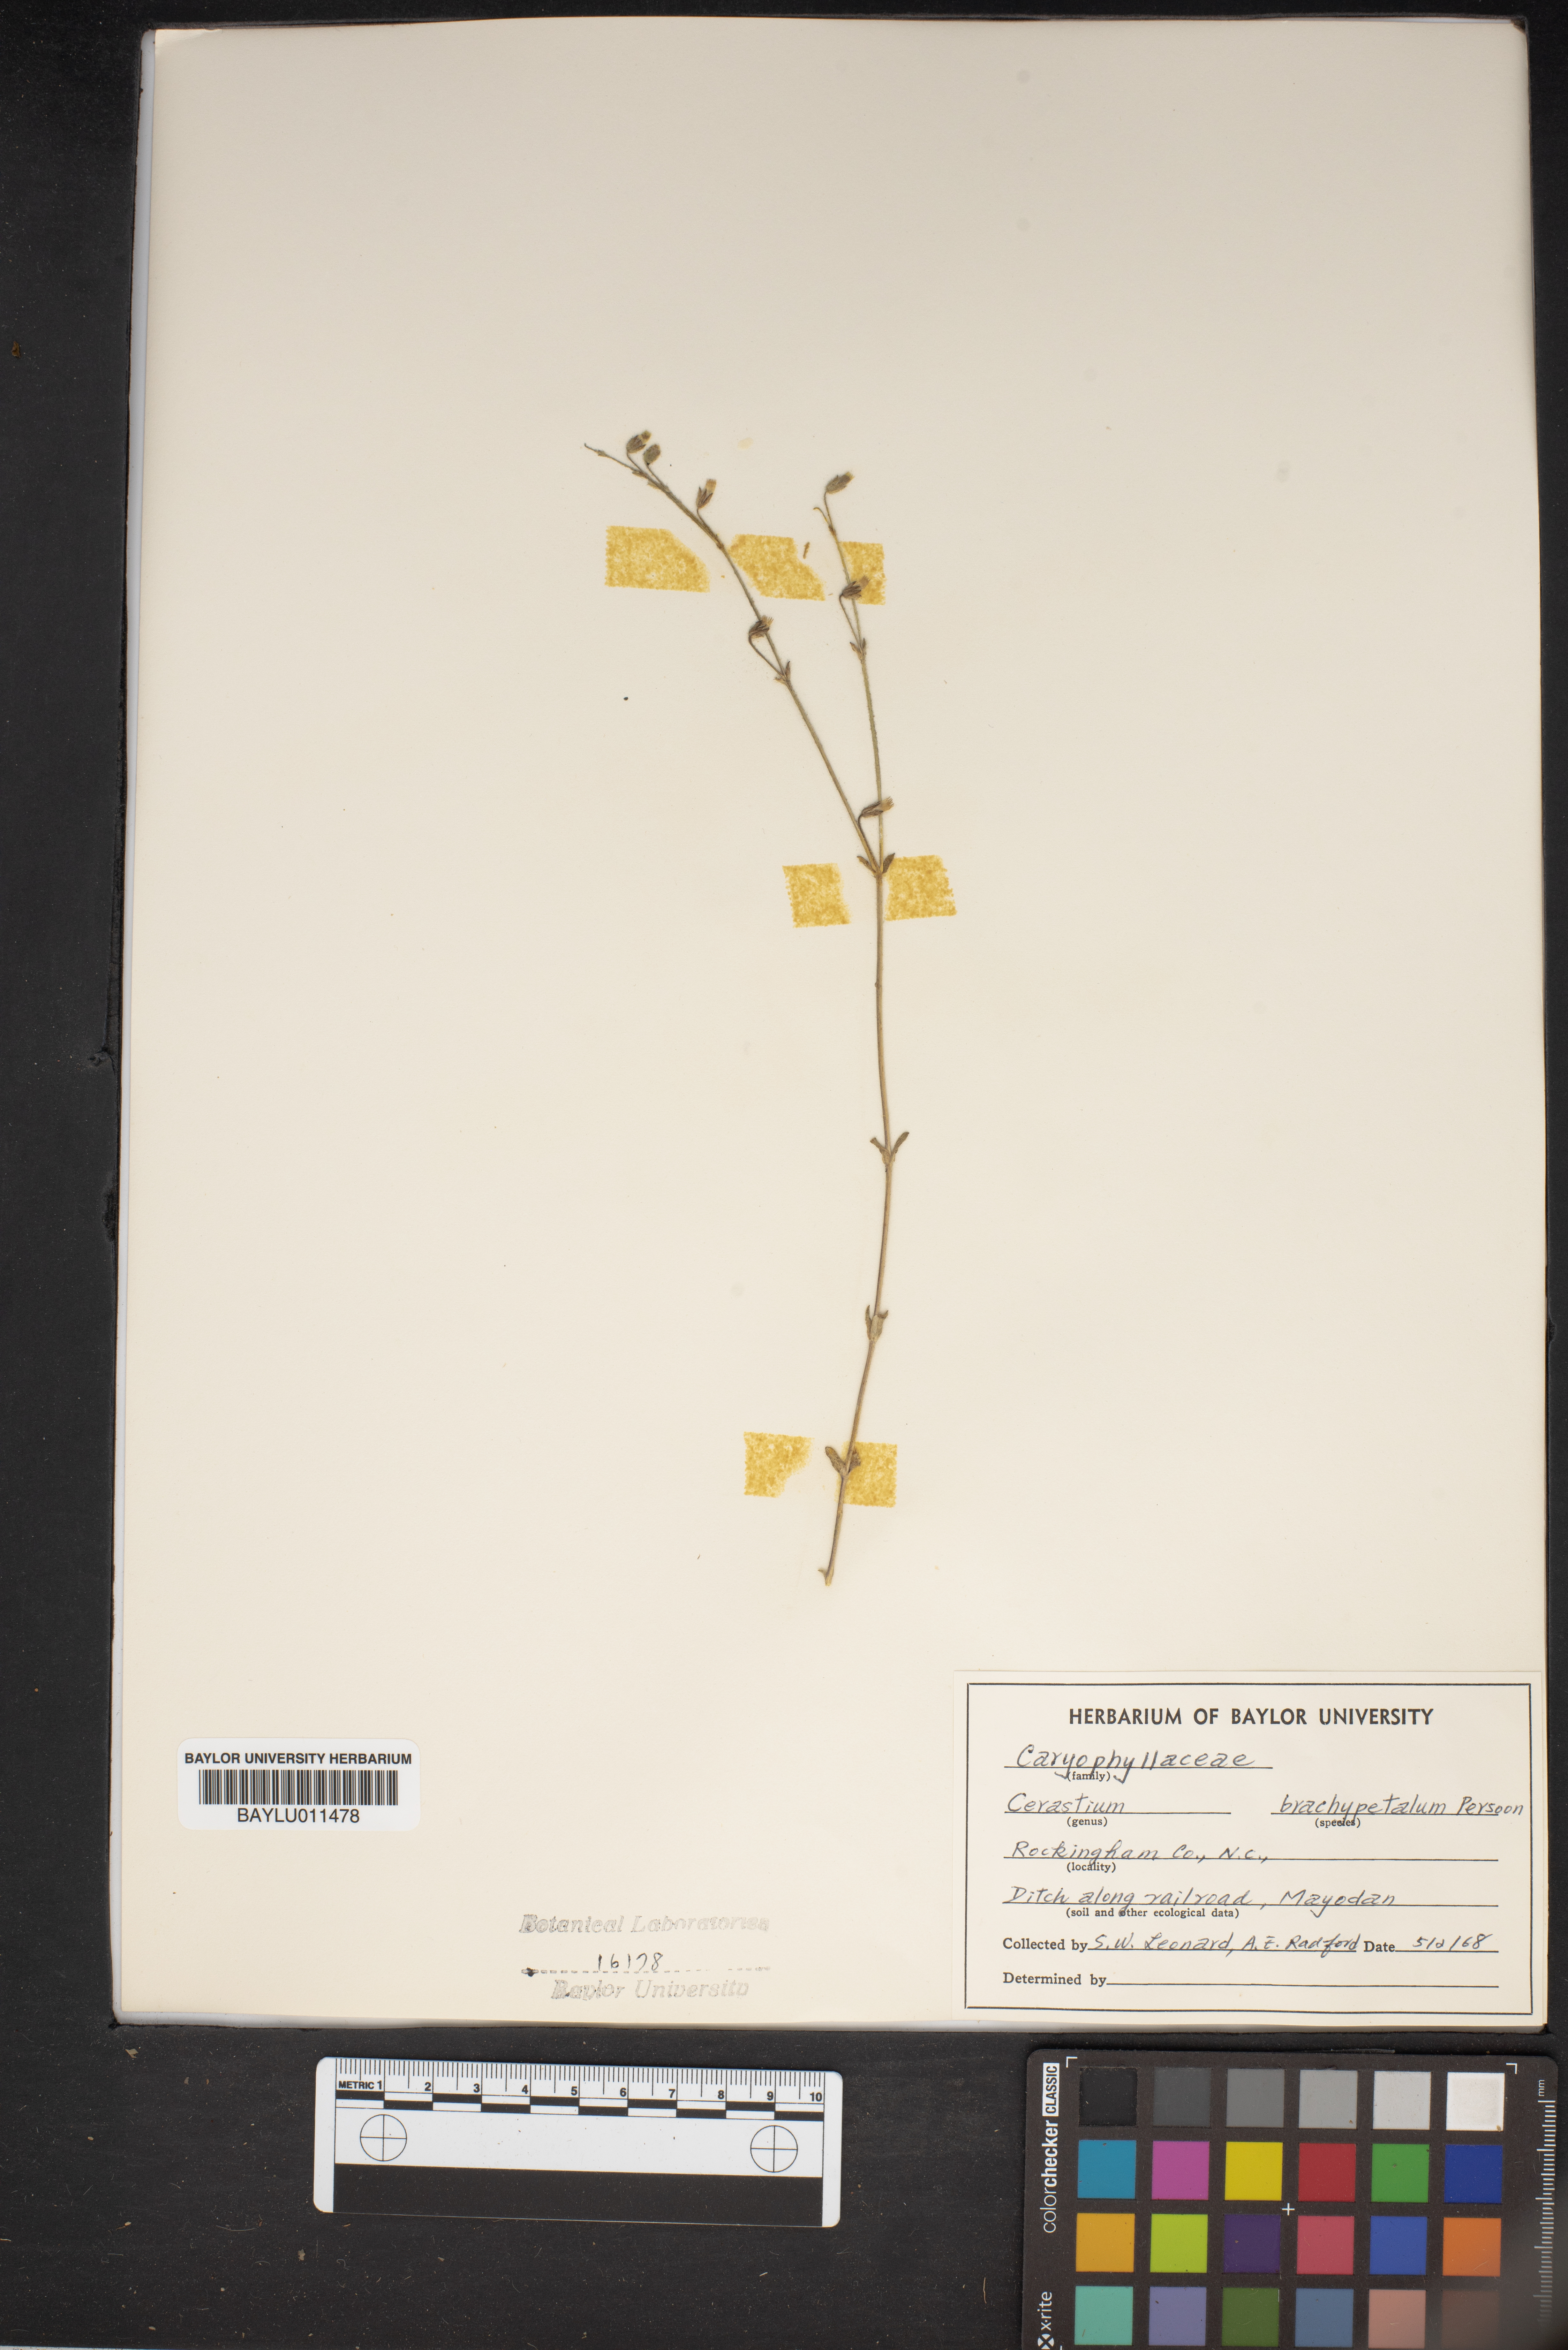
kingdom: Plantae
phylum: Tracheophyta
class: Magnoliopsida
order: Caryophyllales
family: Caryophyllaceae
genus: Cerastium
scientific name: Cerastium brachypetalum
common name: Grey mouse-ear
